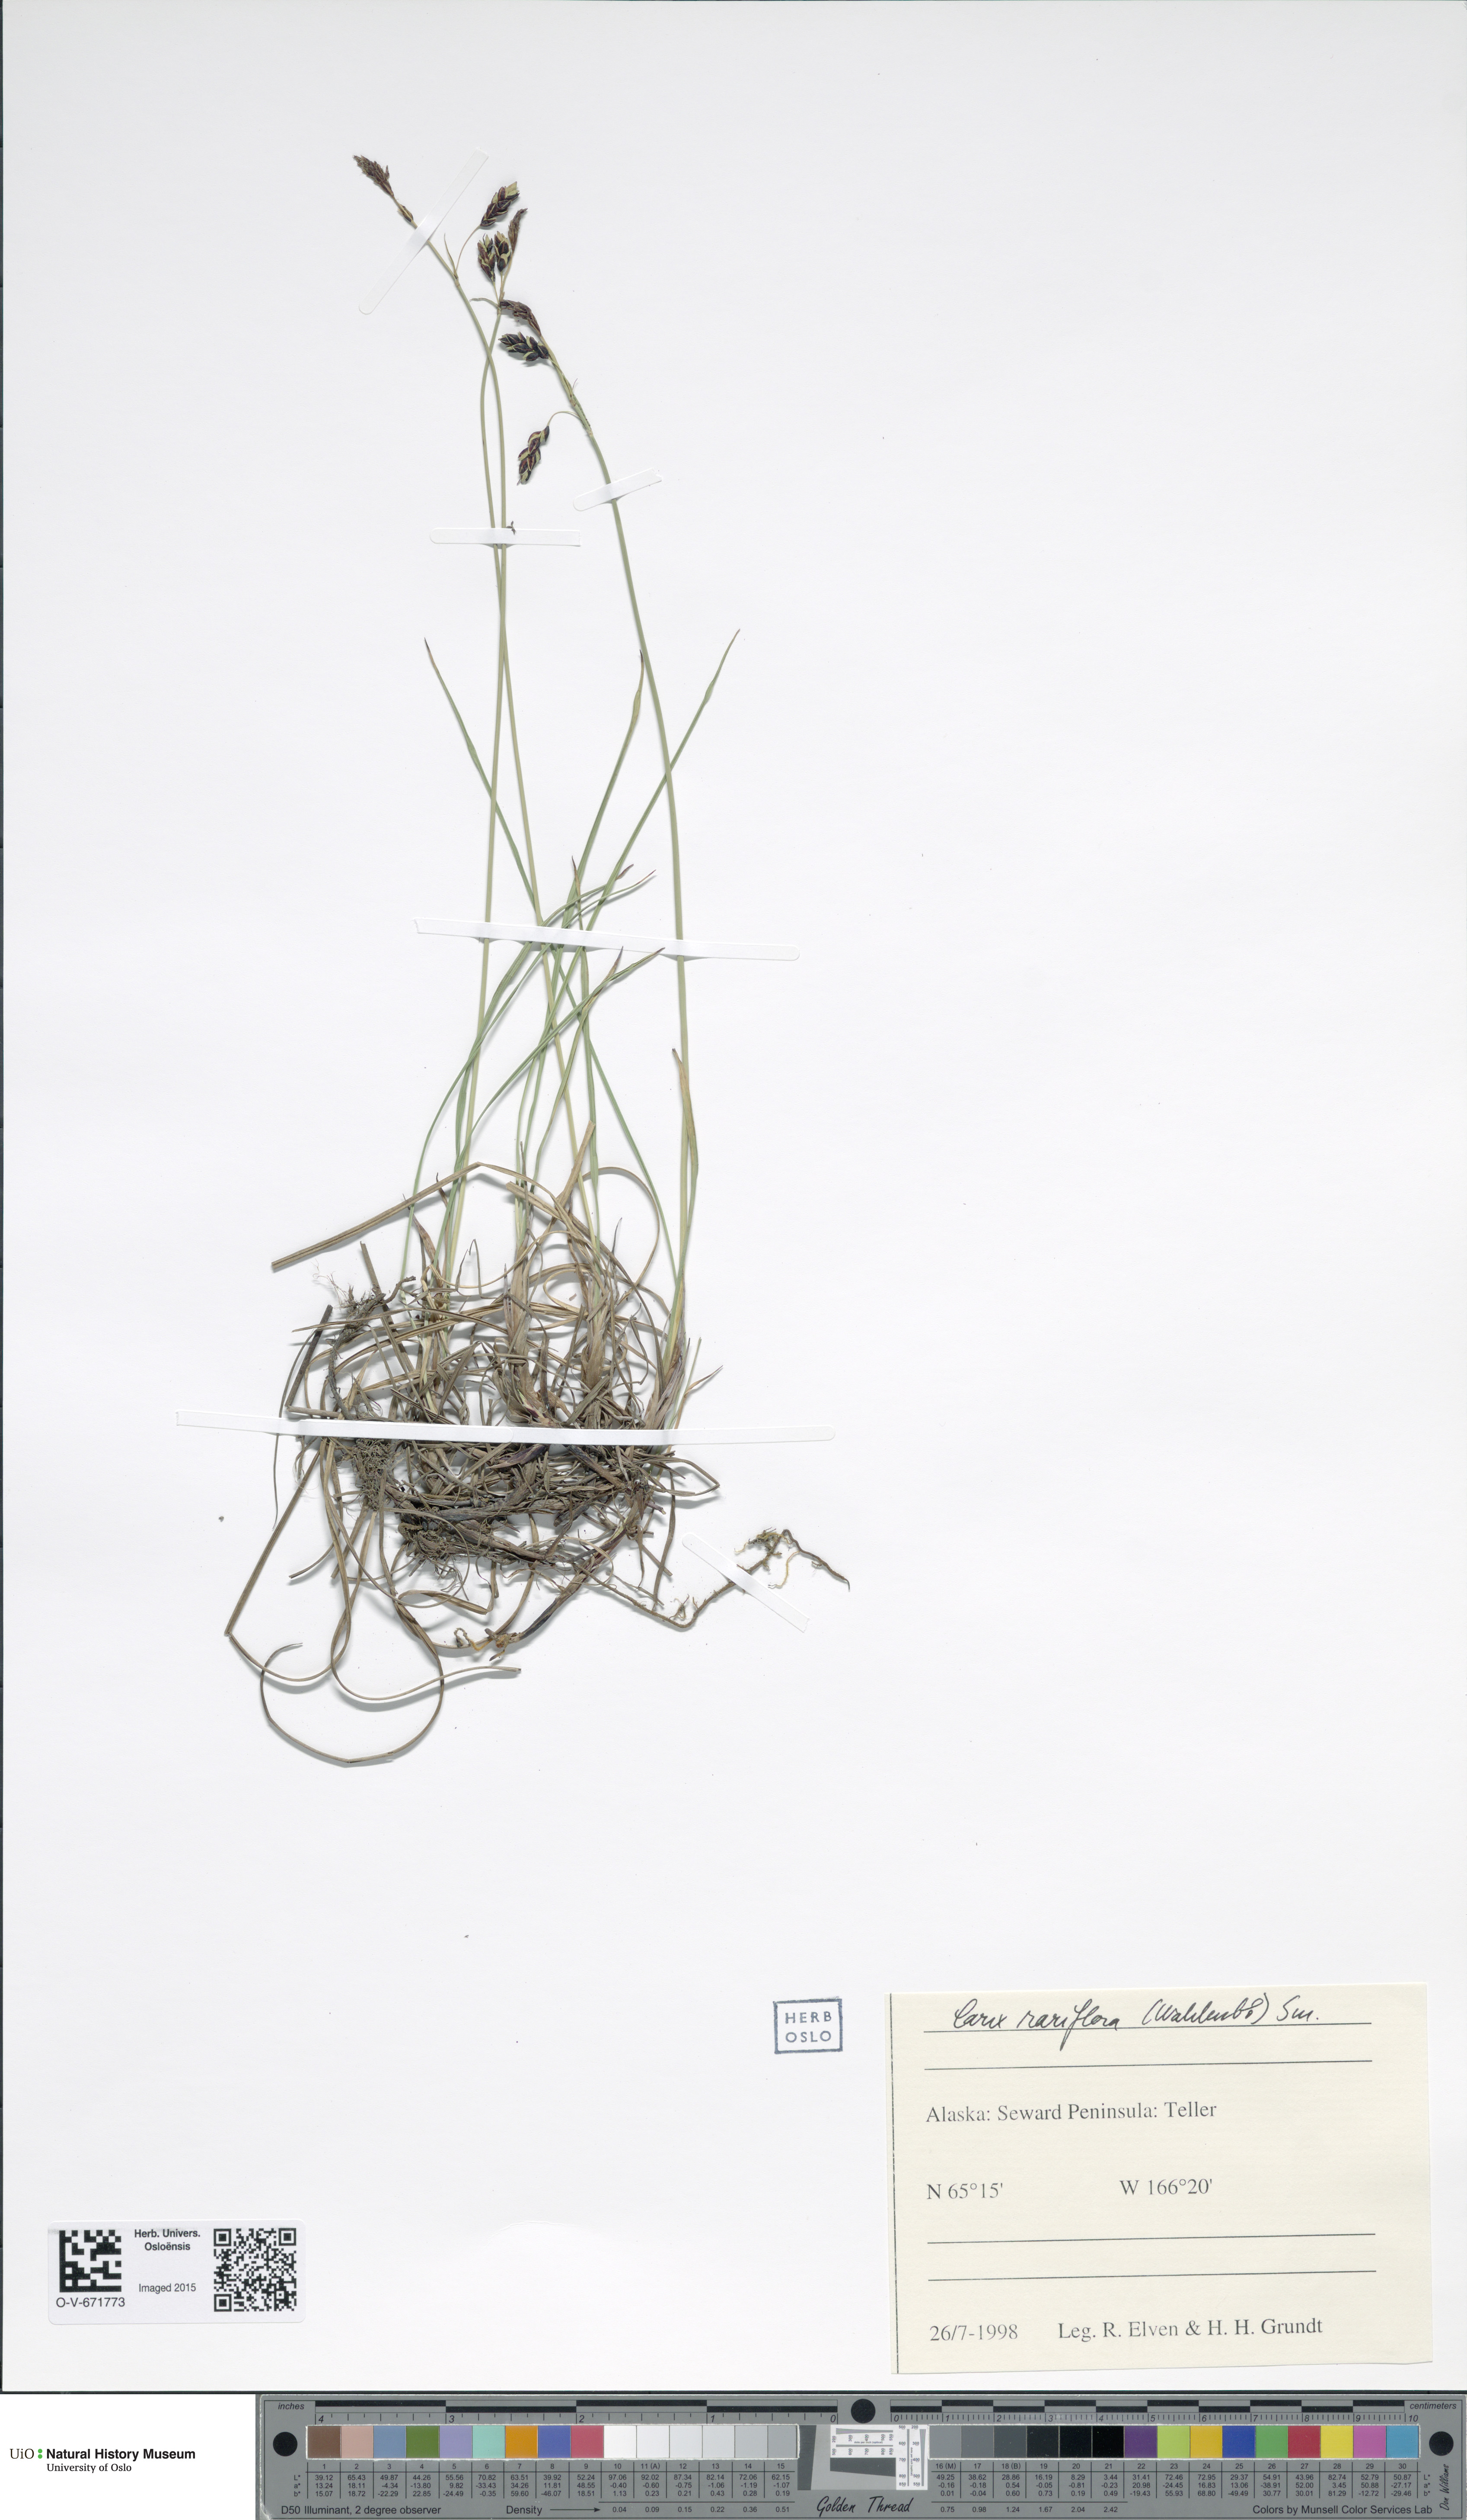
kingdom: Plantae
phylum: Tracheophyta
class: Liliopsida
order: Poales
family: Cyperaceae
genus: Carex
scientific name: Carex rariflora
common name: Loose-flowered alpine sedge
